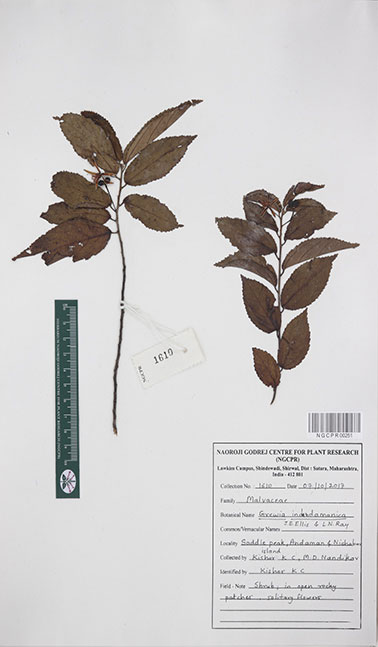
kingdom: Plantae
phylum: Tracheophyta
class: Magnoliopsida
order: Malvales
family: Malvaceae
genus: Grewia
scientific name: Grewia indandamanica
